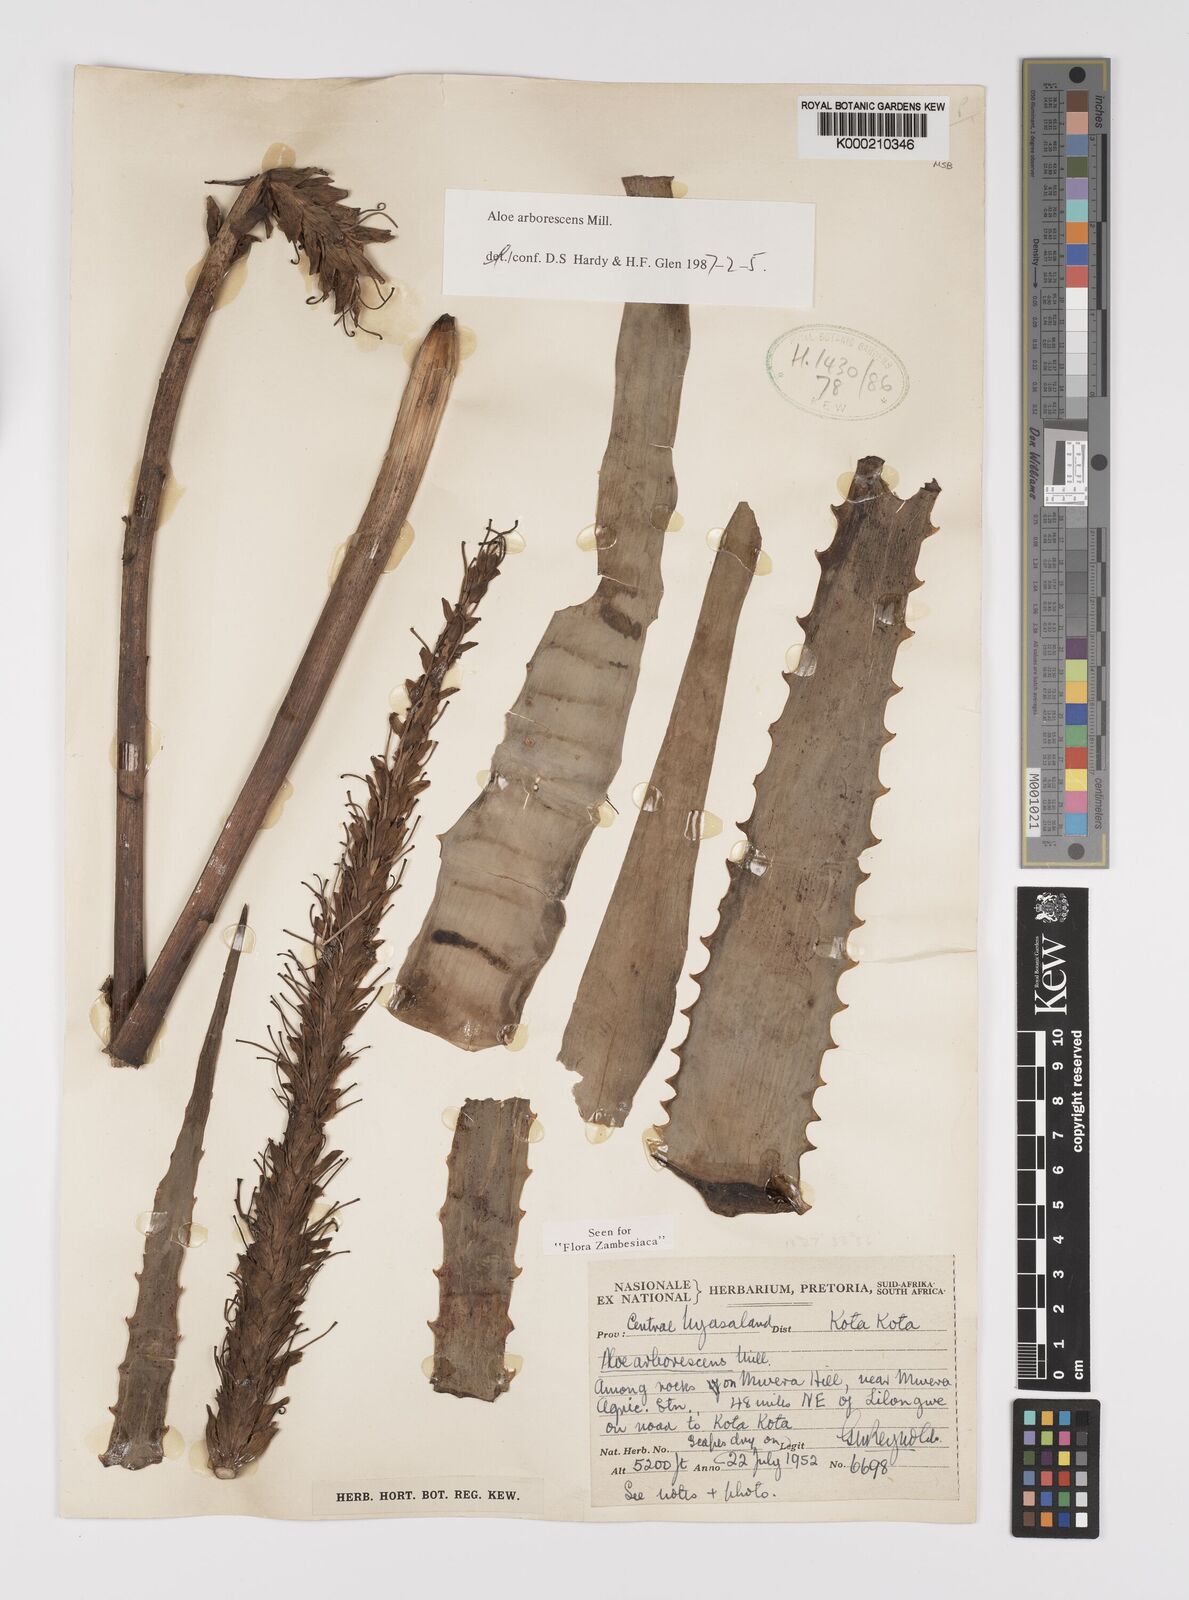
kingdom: Plantae
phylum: Tracheophyta
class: Liliopsida
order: Asparagales
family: Asphodelaceae
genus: Aloe
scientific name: Aloe arborescens
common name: Candelabra aloe
